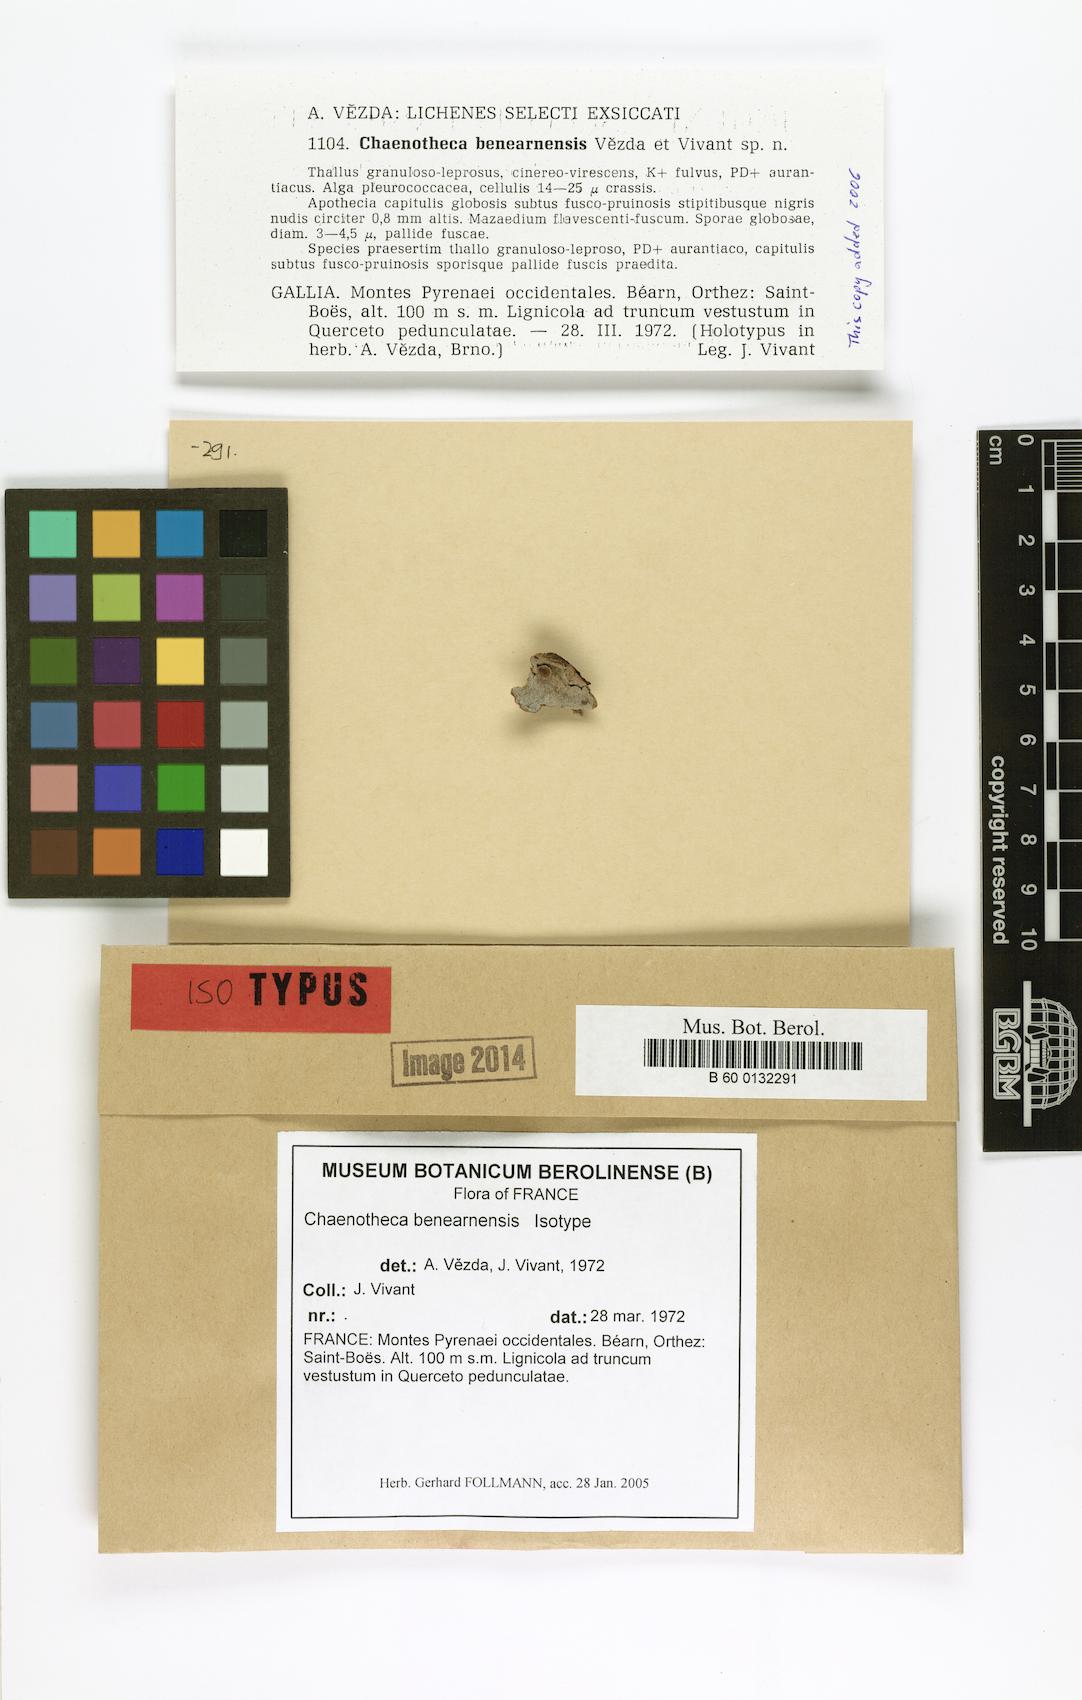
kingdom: Fungi
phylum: Ascomycota
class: Coniocybomycetes
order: Coniocybales
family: Coniocybaceae
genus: Chaenotheca
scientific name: Chaenotheca benearnensis
